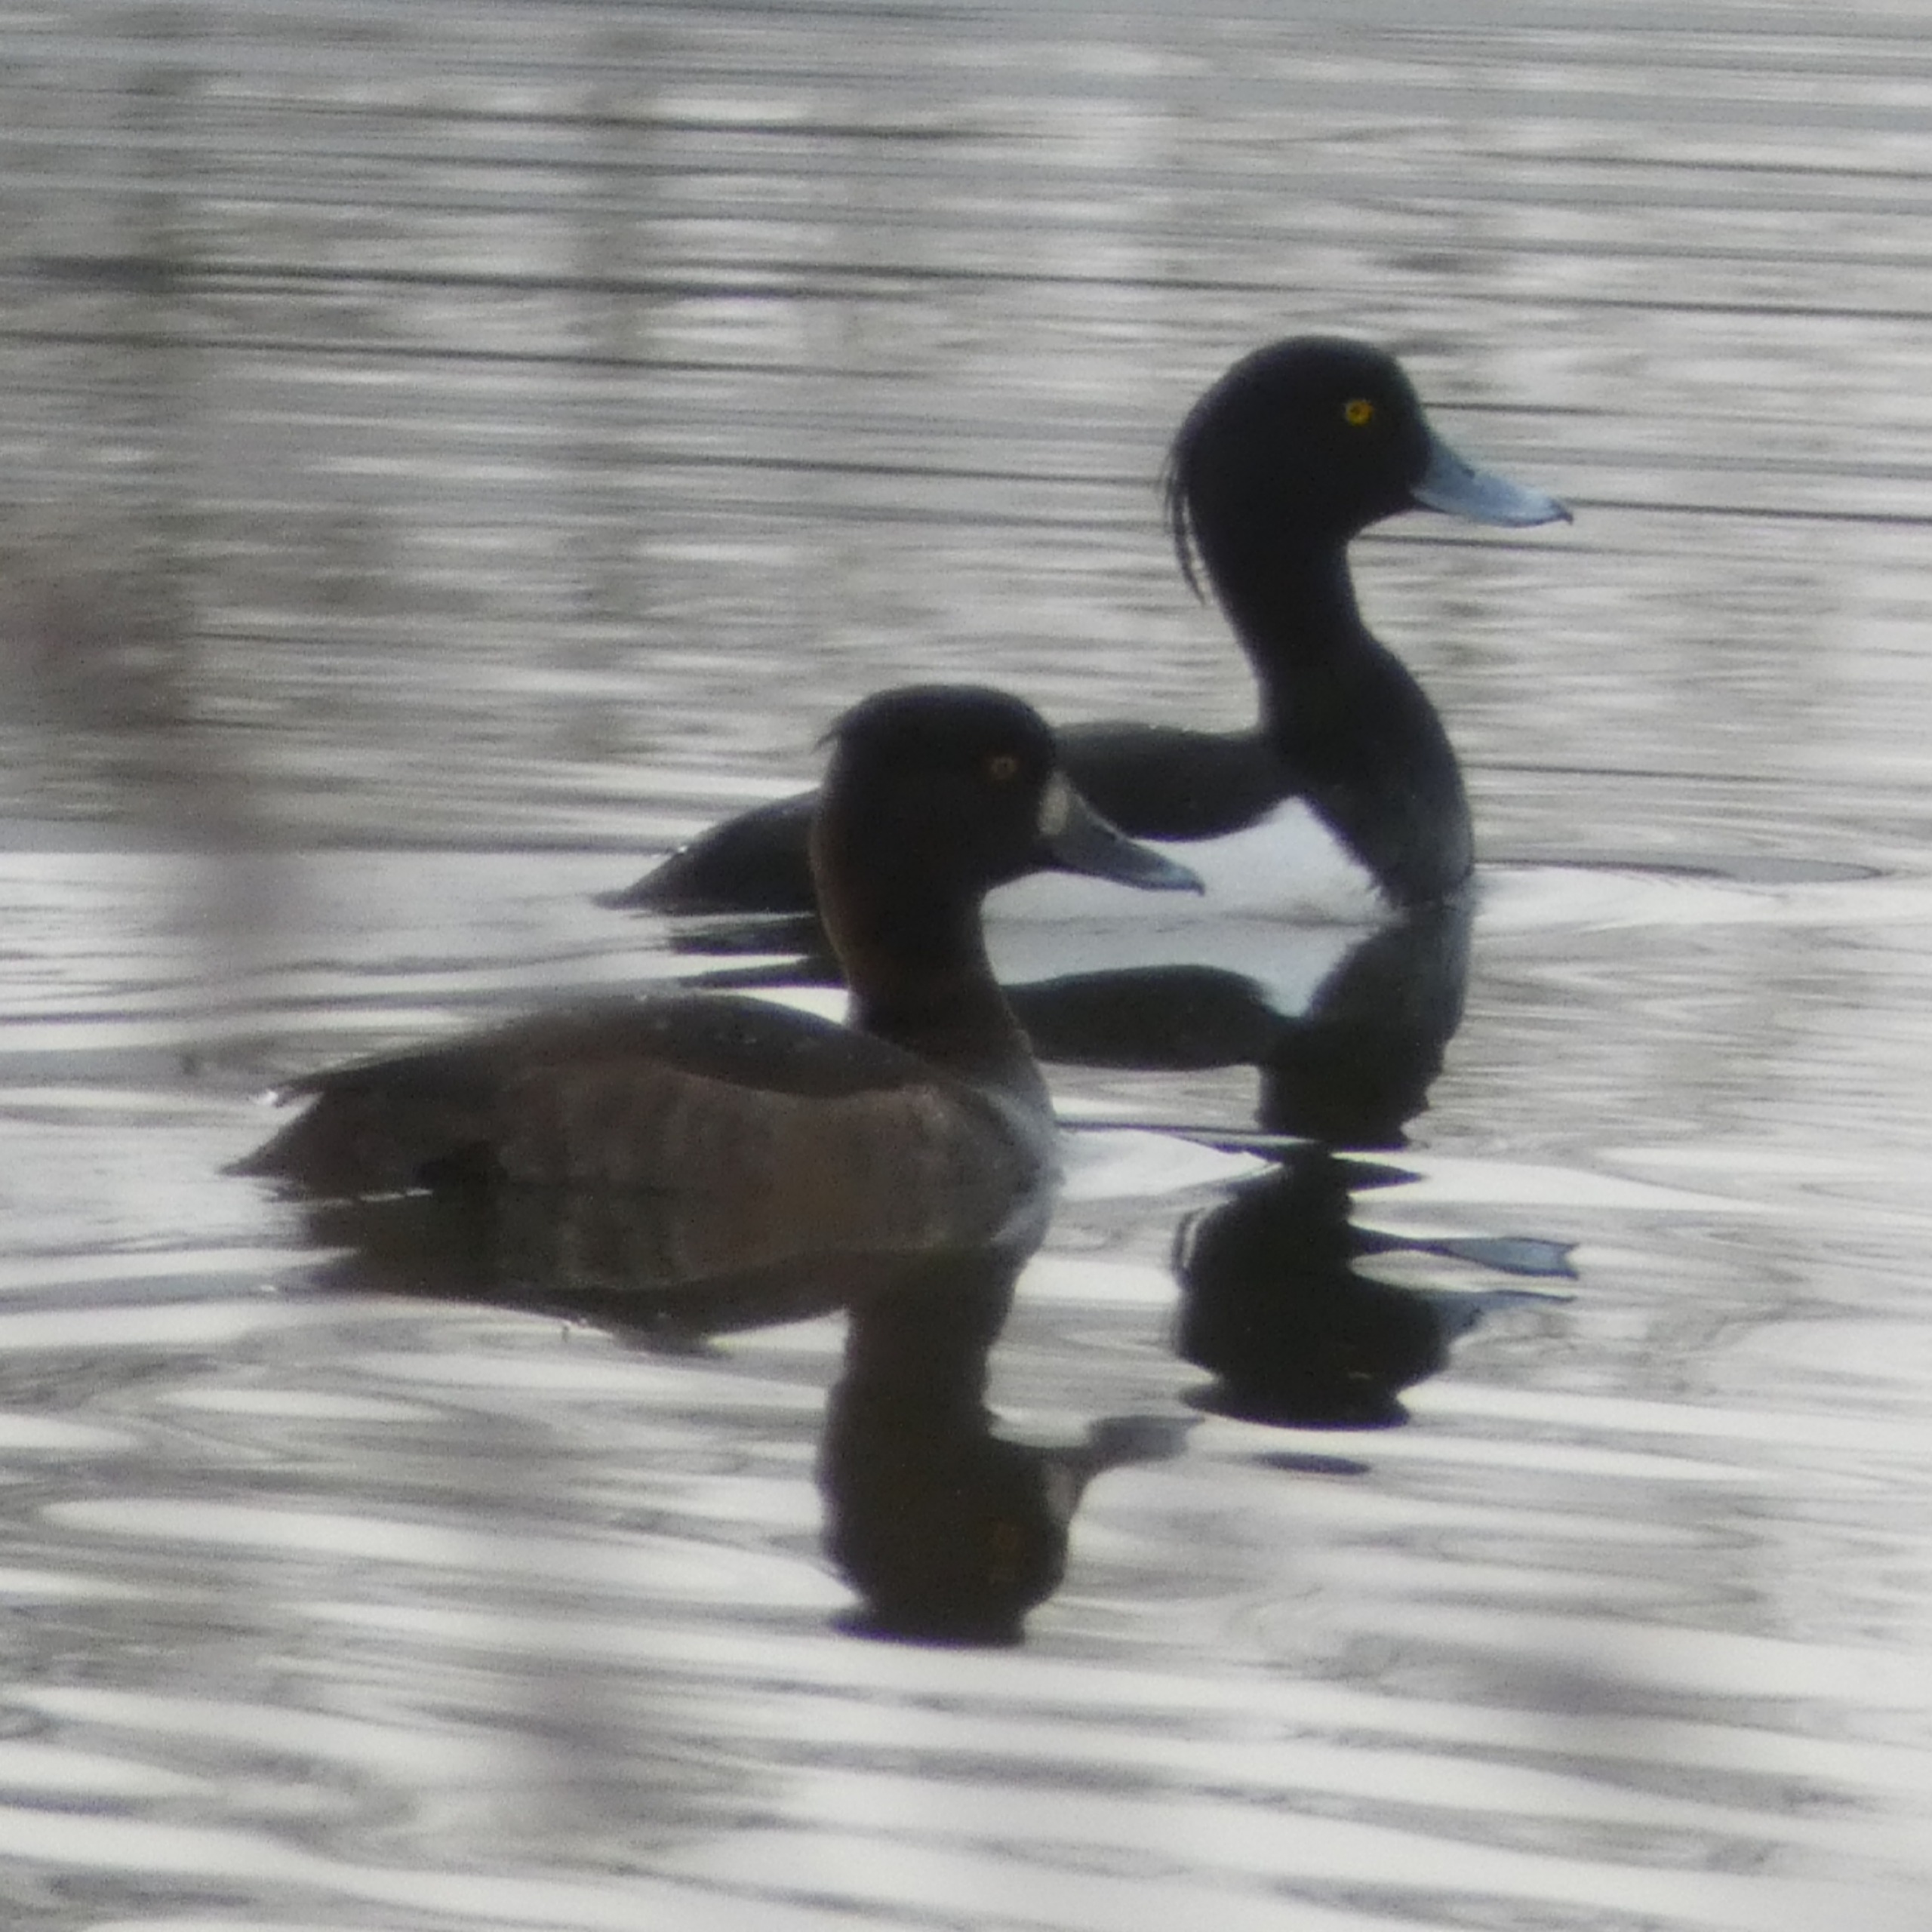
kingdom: Animalia
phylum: Chordata
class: Aves
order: Anseriformes
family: Anatidae
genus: Aythya
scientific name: Aythya fuligula
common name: Troldand
